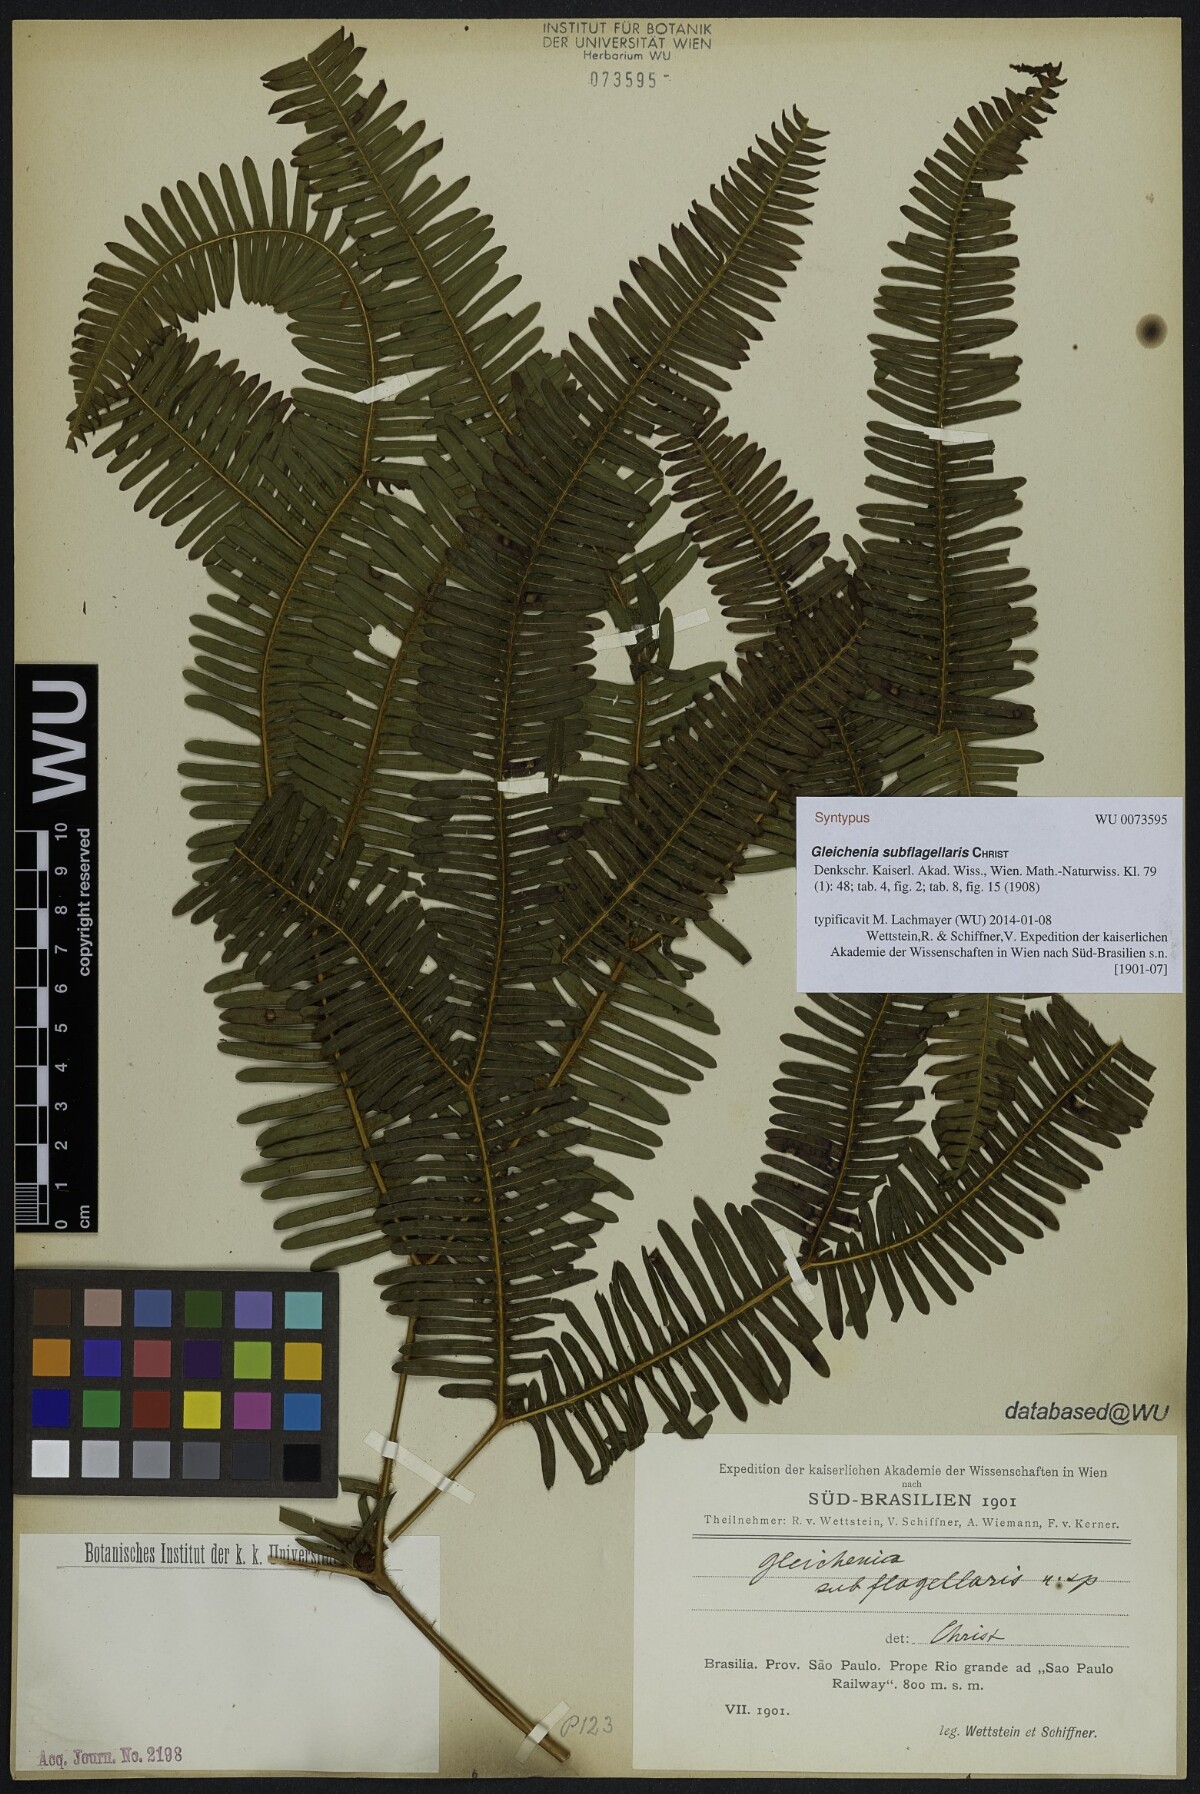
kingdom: Plantae
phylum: Tracheophyta
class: Polypodiopsida
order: Gleicheniales
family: Gleicheniaceae
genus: Sticherus
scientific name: Sticherus squamosus
